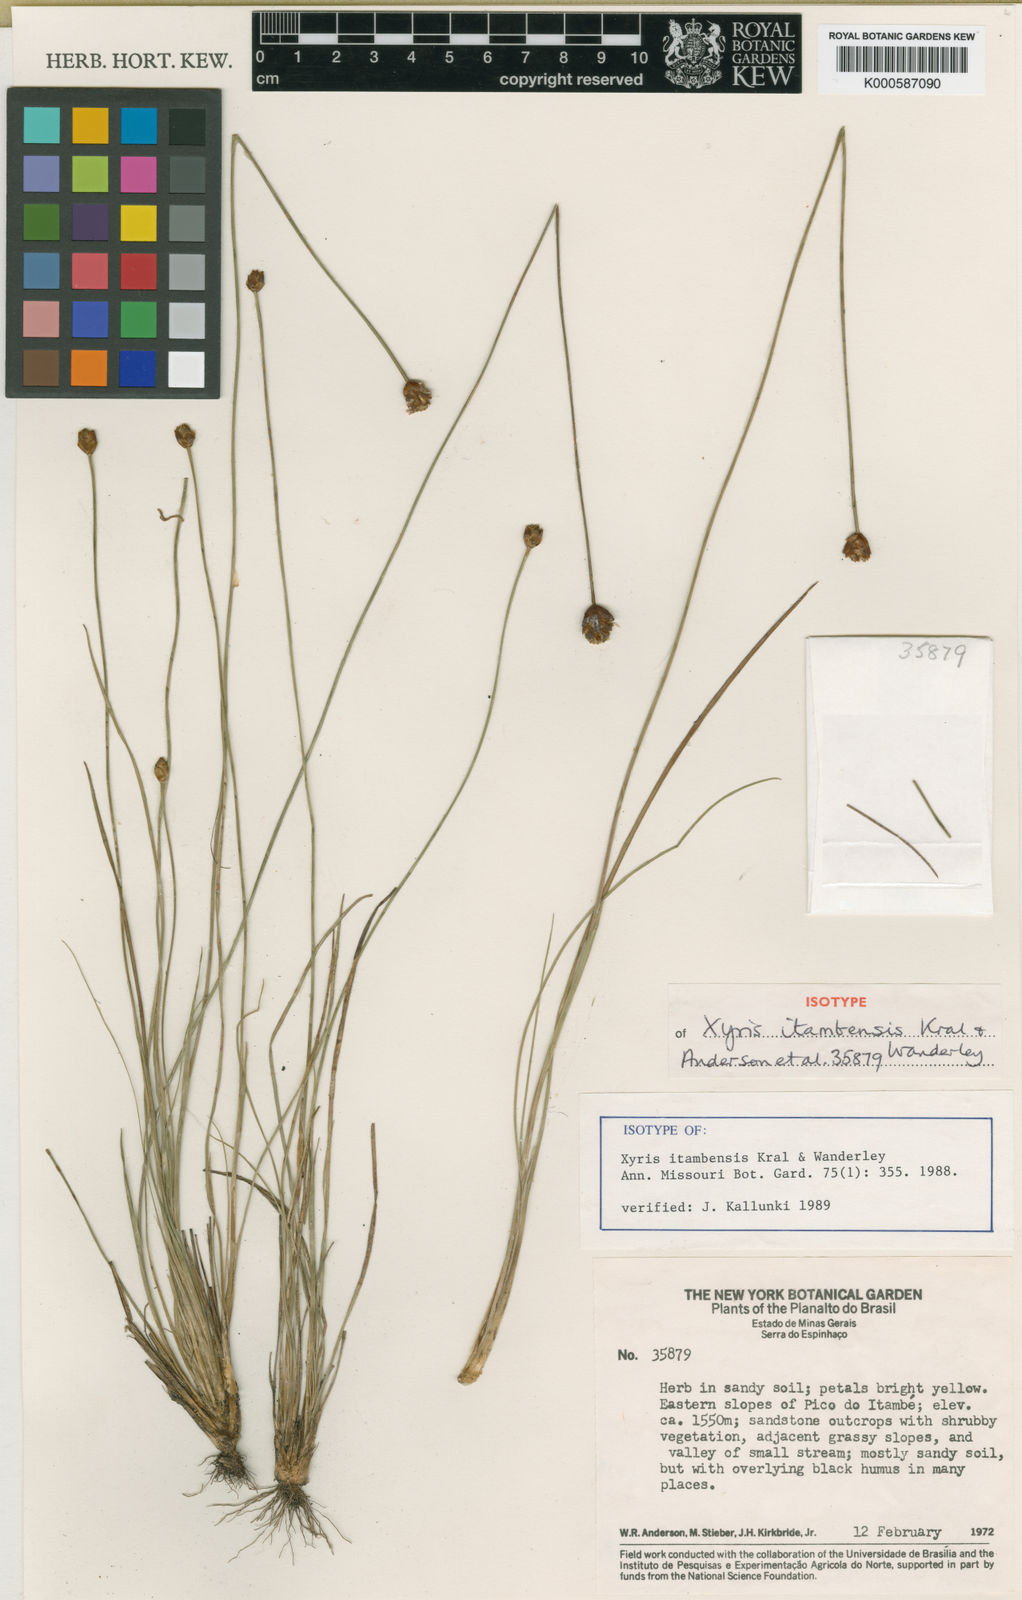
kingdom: Plantae
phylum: Tracheophyta
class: Liliopsida
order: Poales
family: Xyridaceae
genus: Xyris
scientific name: Xyris itambensis
